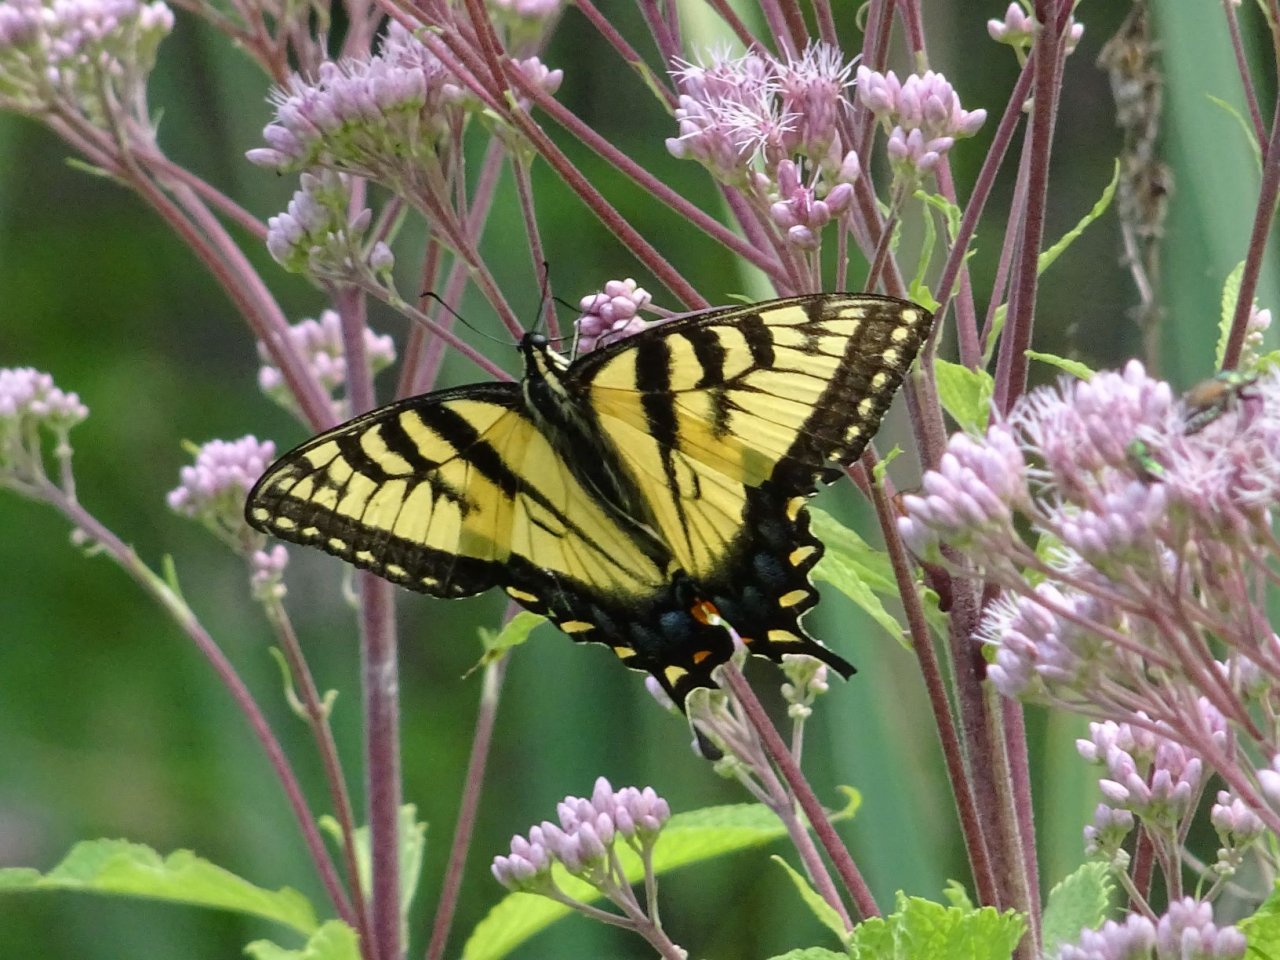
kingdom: Animalia
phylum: Arthropoda
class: Insecta
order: Lepidoptera
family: Papilionidae
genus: Pterourus
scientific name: Pterourus
